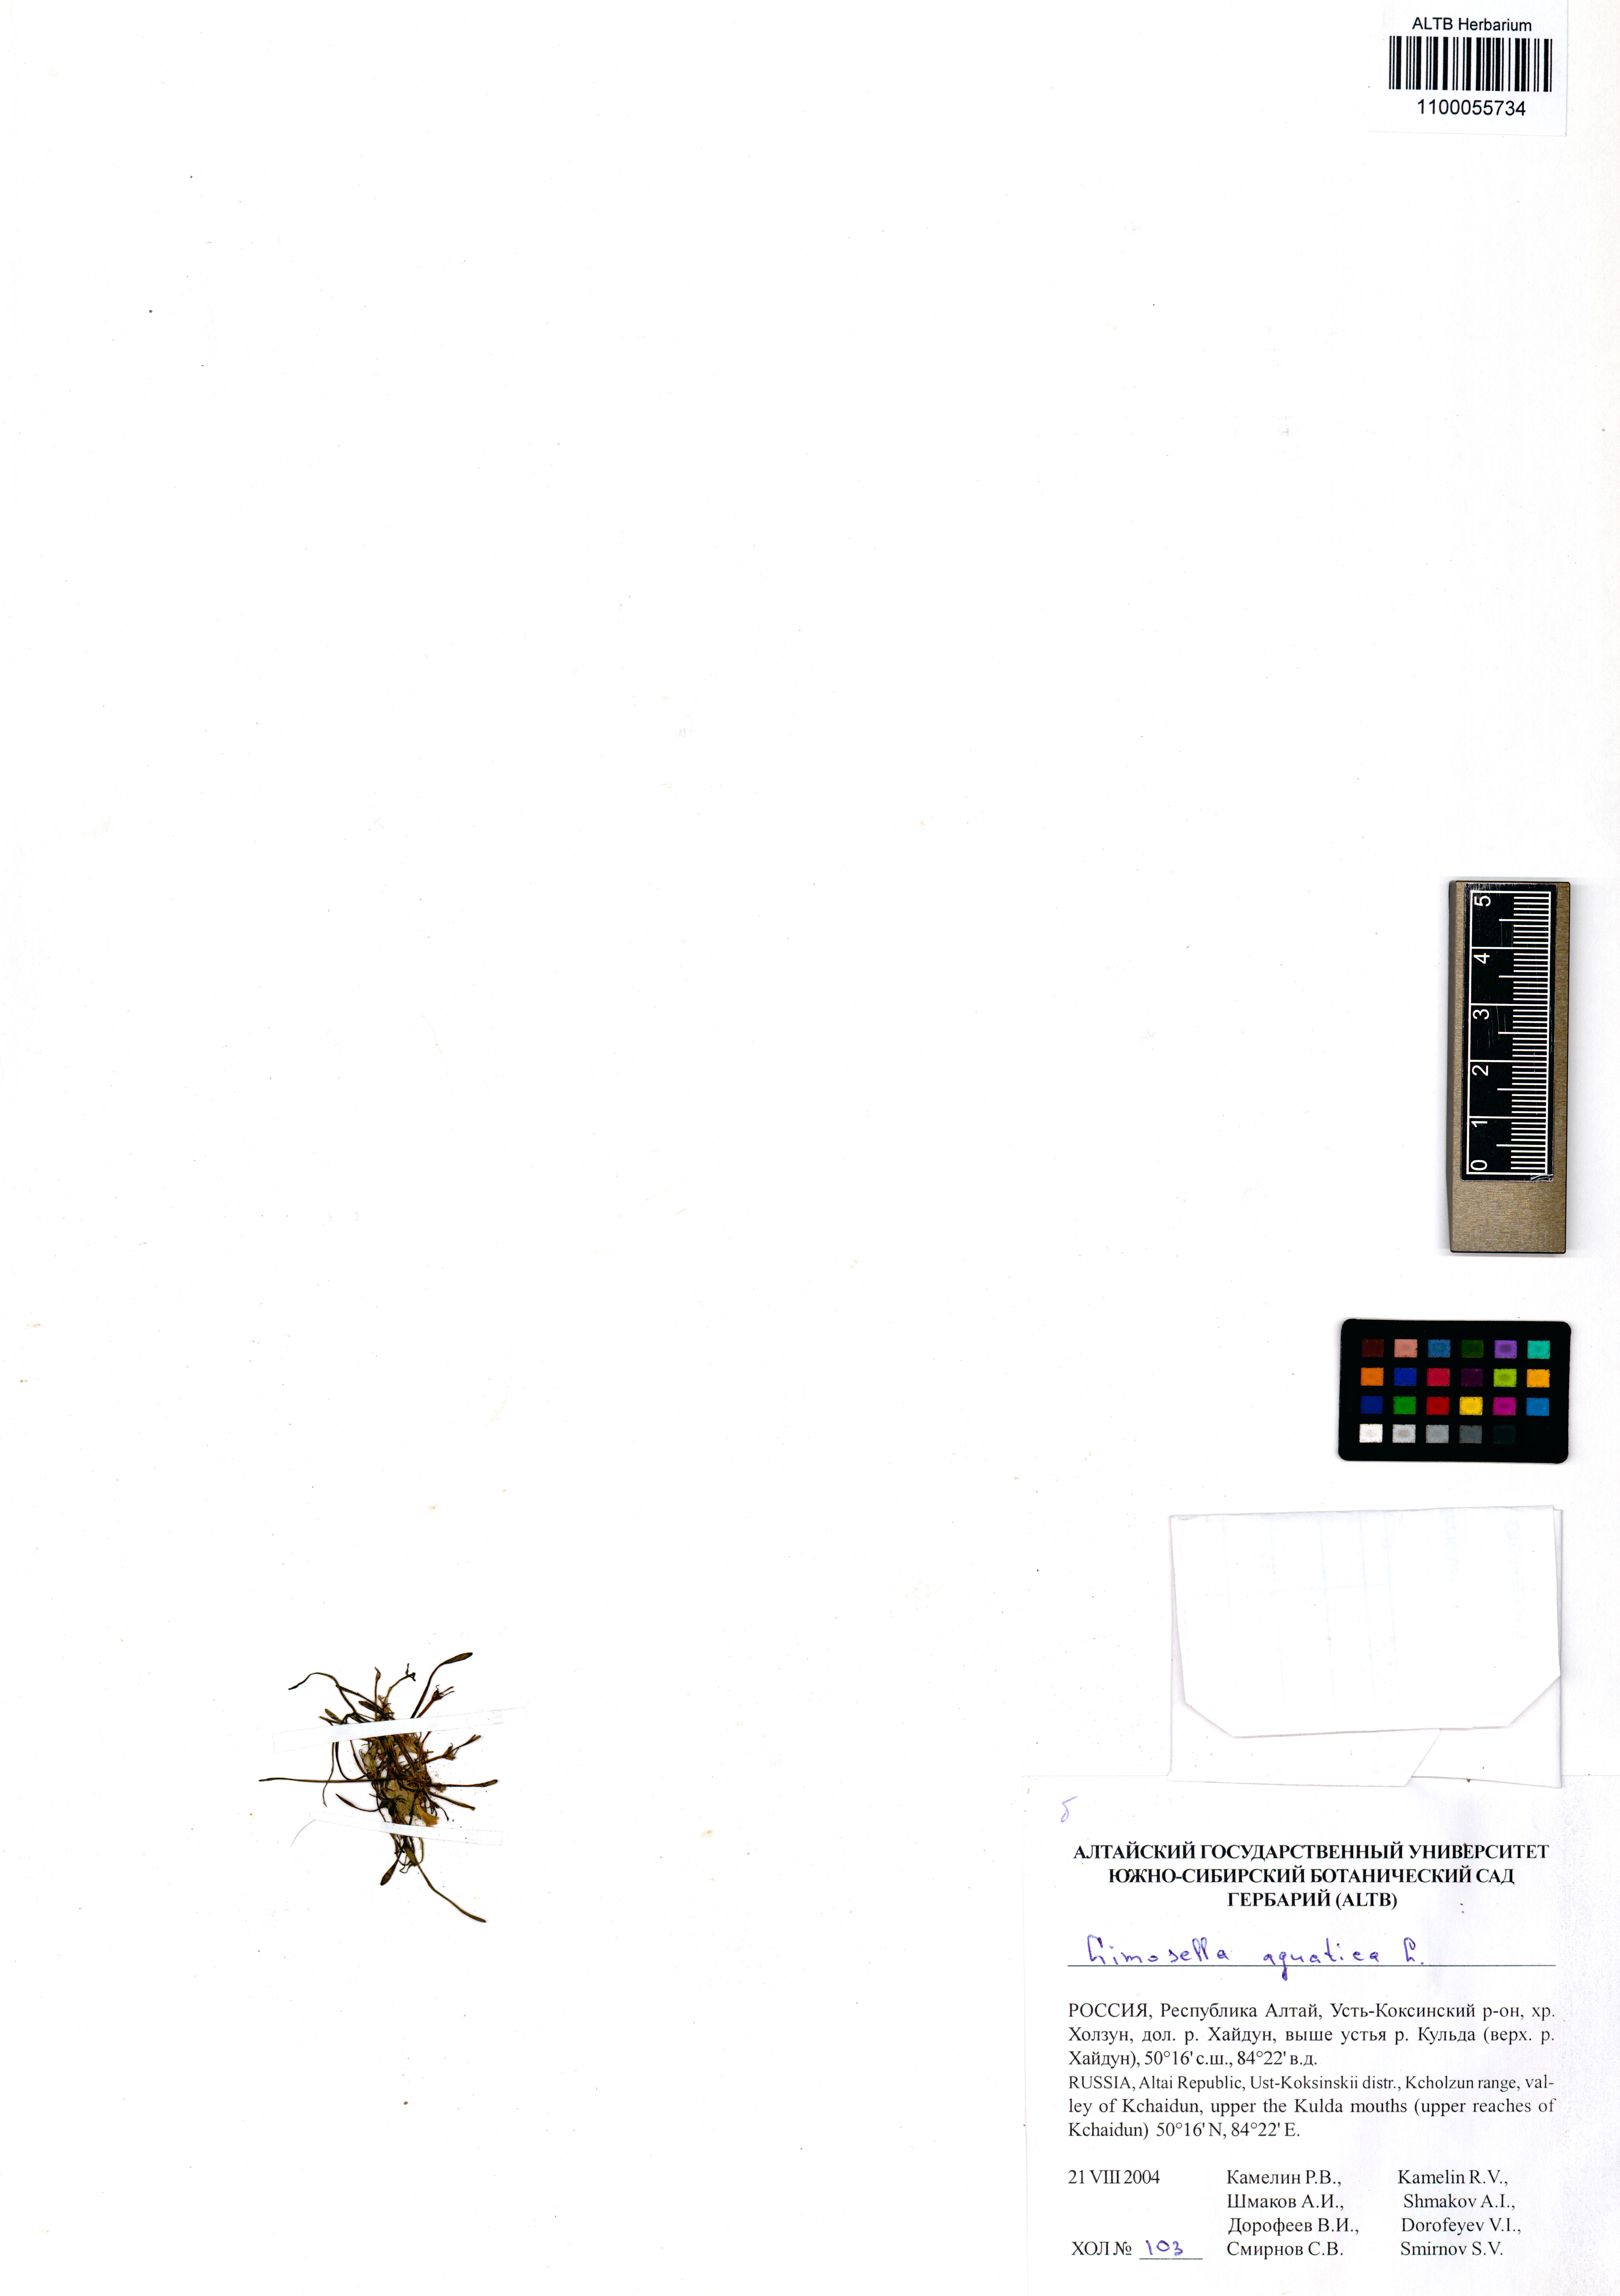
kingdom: Plantae
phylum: Tracheophyta
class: Magnoliopsida
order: Lamiales
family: Scrophulariaceae
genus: Limosella
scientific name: Limosella aquatica
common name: Mudwort
